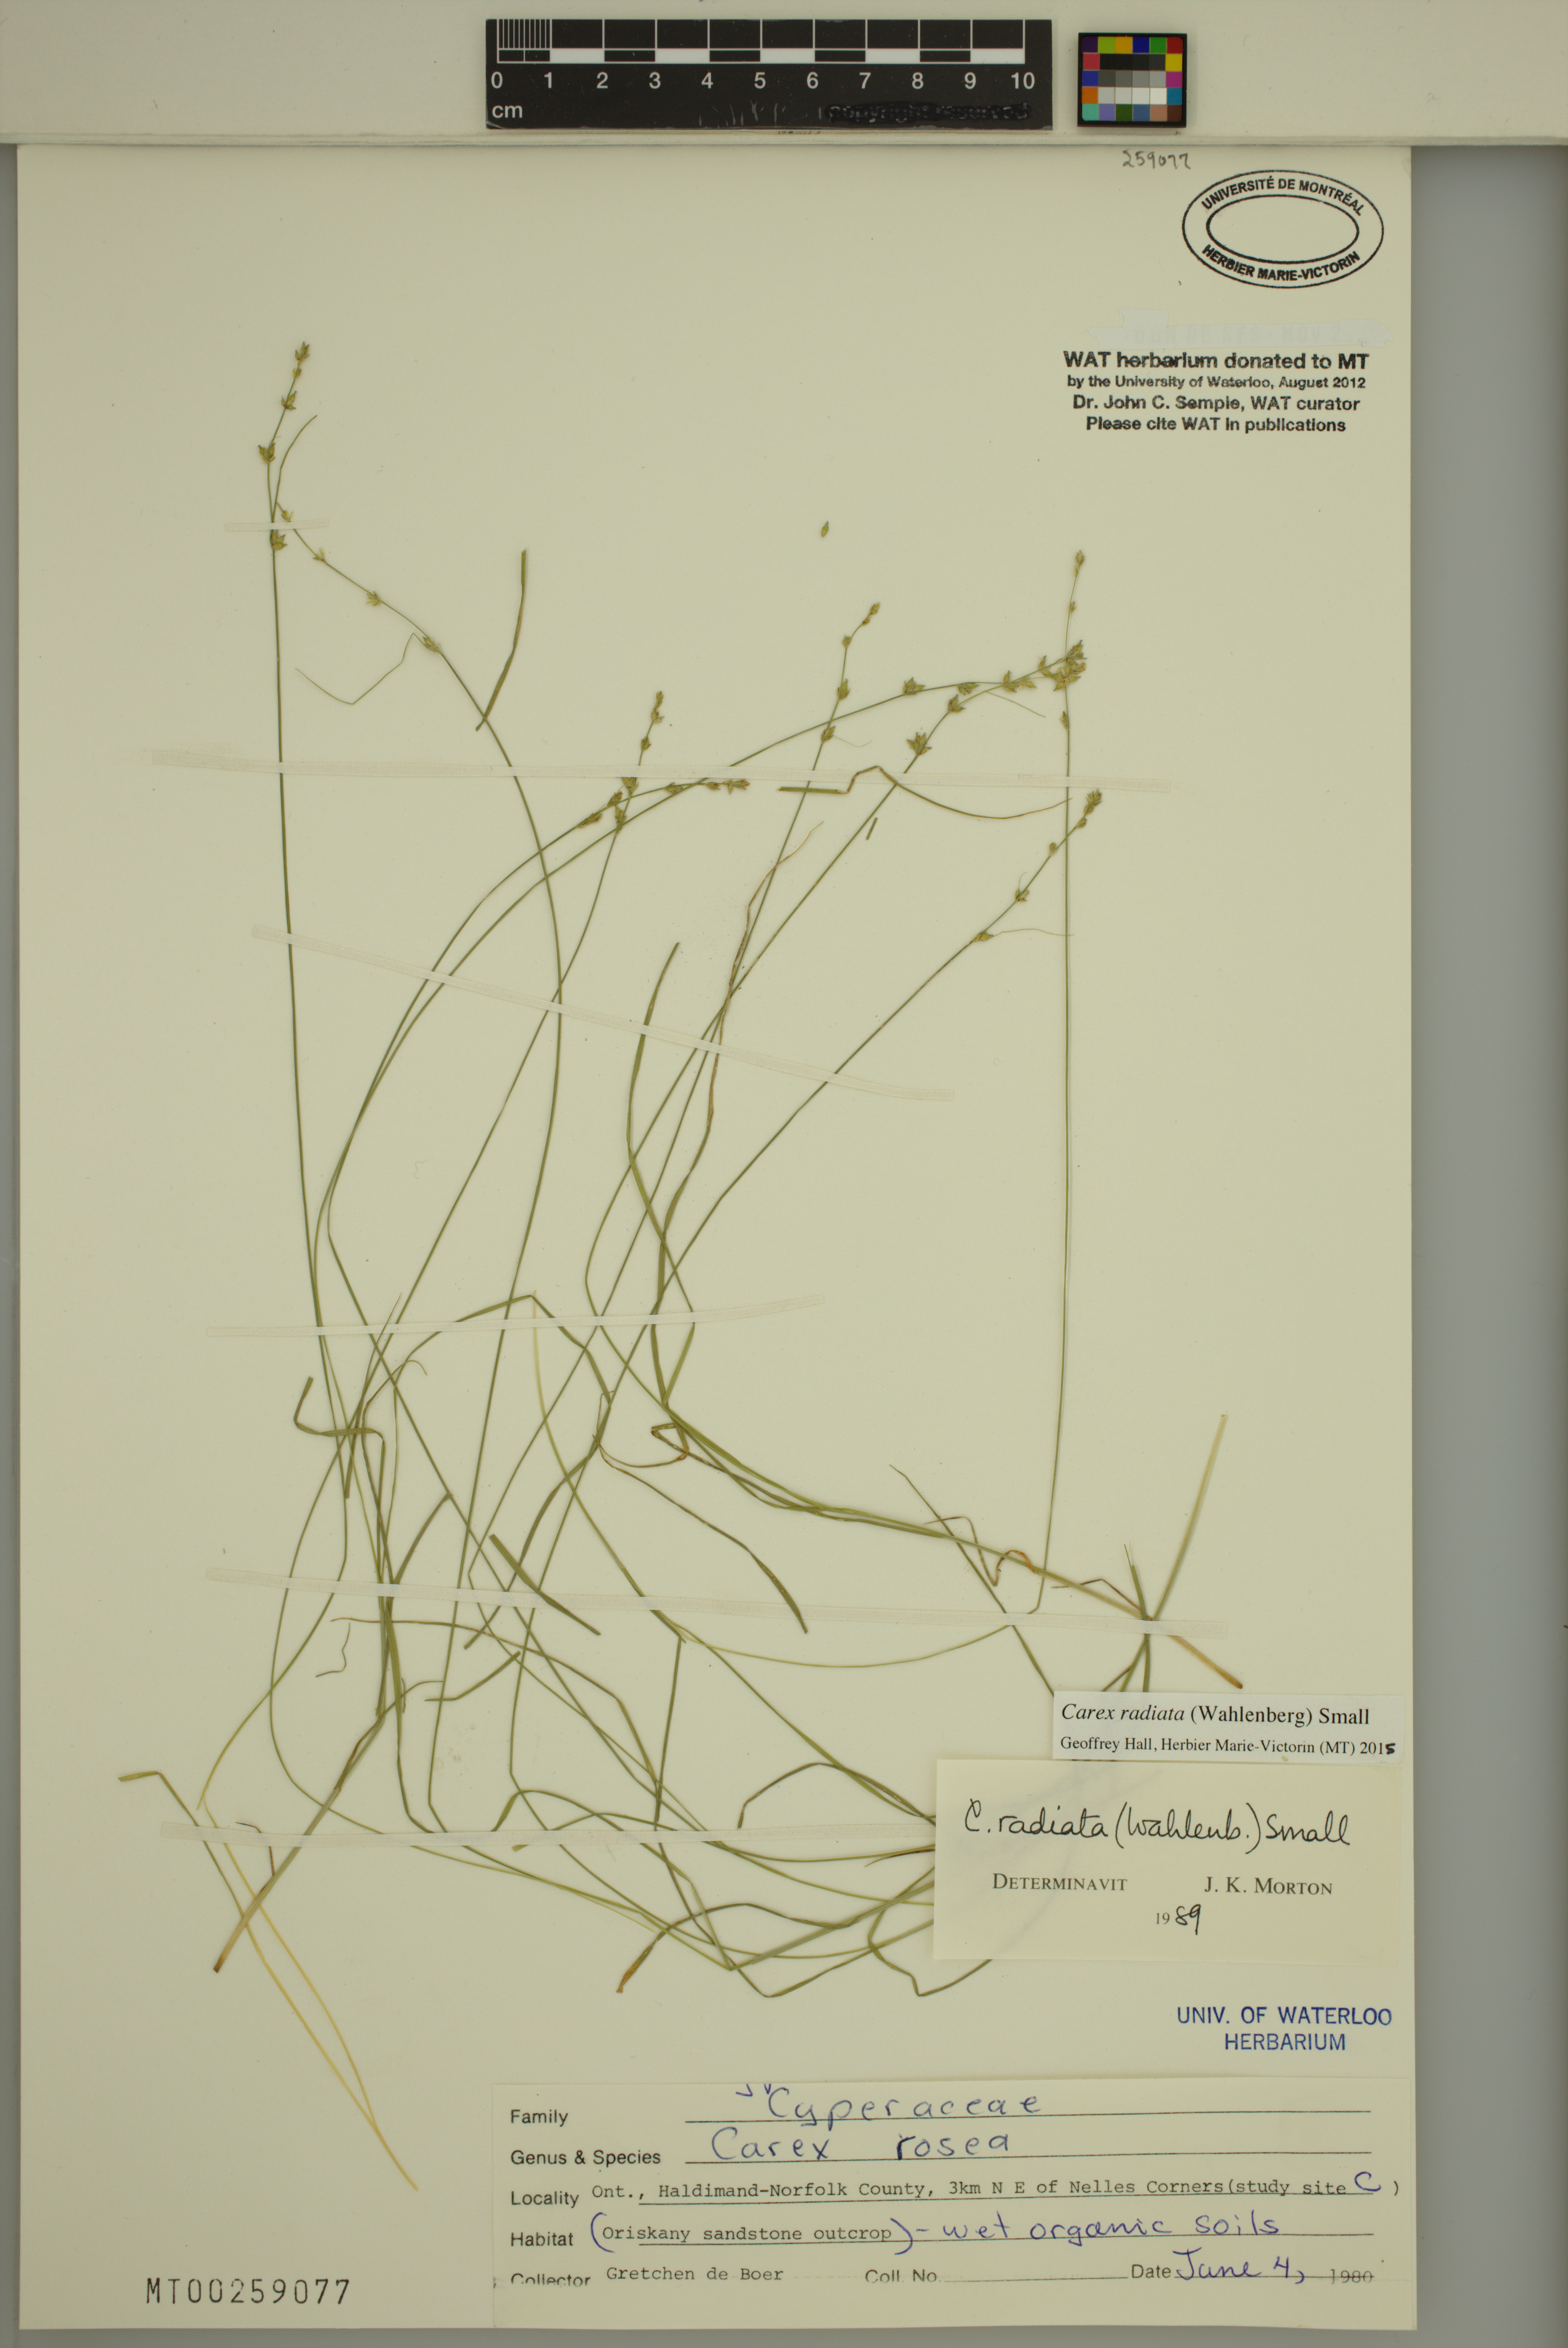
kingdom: Plantae
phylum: Tracheophyta
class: Liliopsida
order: Poales
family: Cyperaceae
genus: Carex
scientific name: Carex radiata
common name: Eastern star sedge
